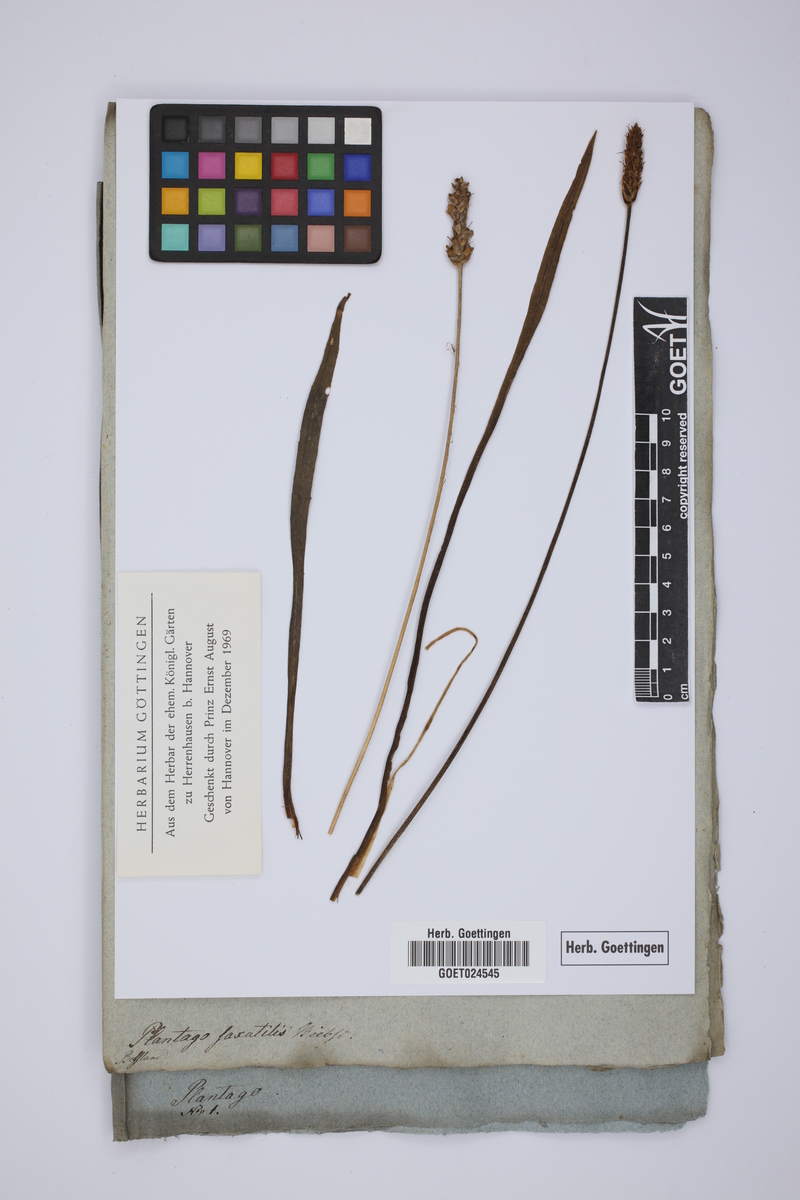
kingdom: Plantae
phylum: Tracheophyta
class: Magnoliopsida
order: Lamiales
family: Plantaginaceae
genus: Plantago
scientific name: Plantago atrata
